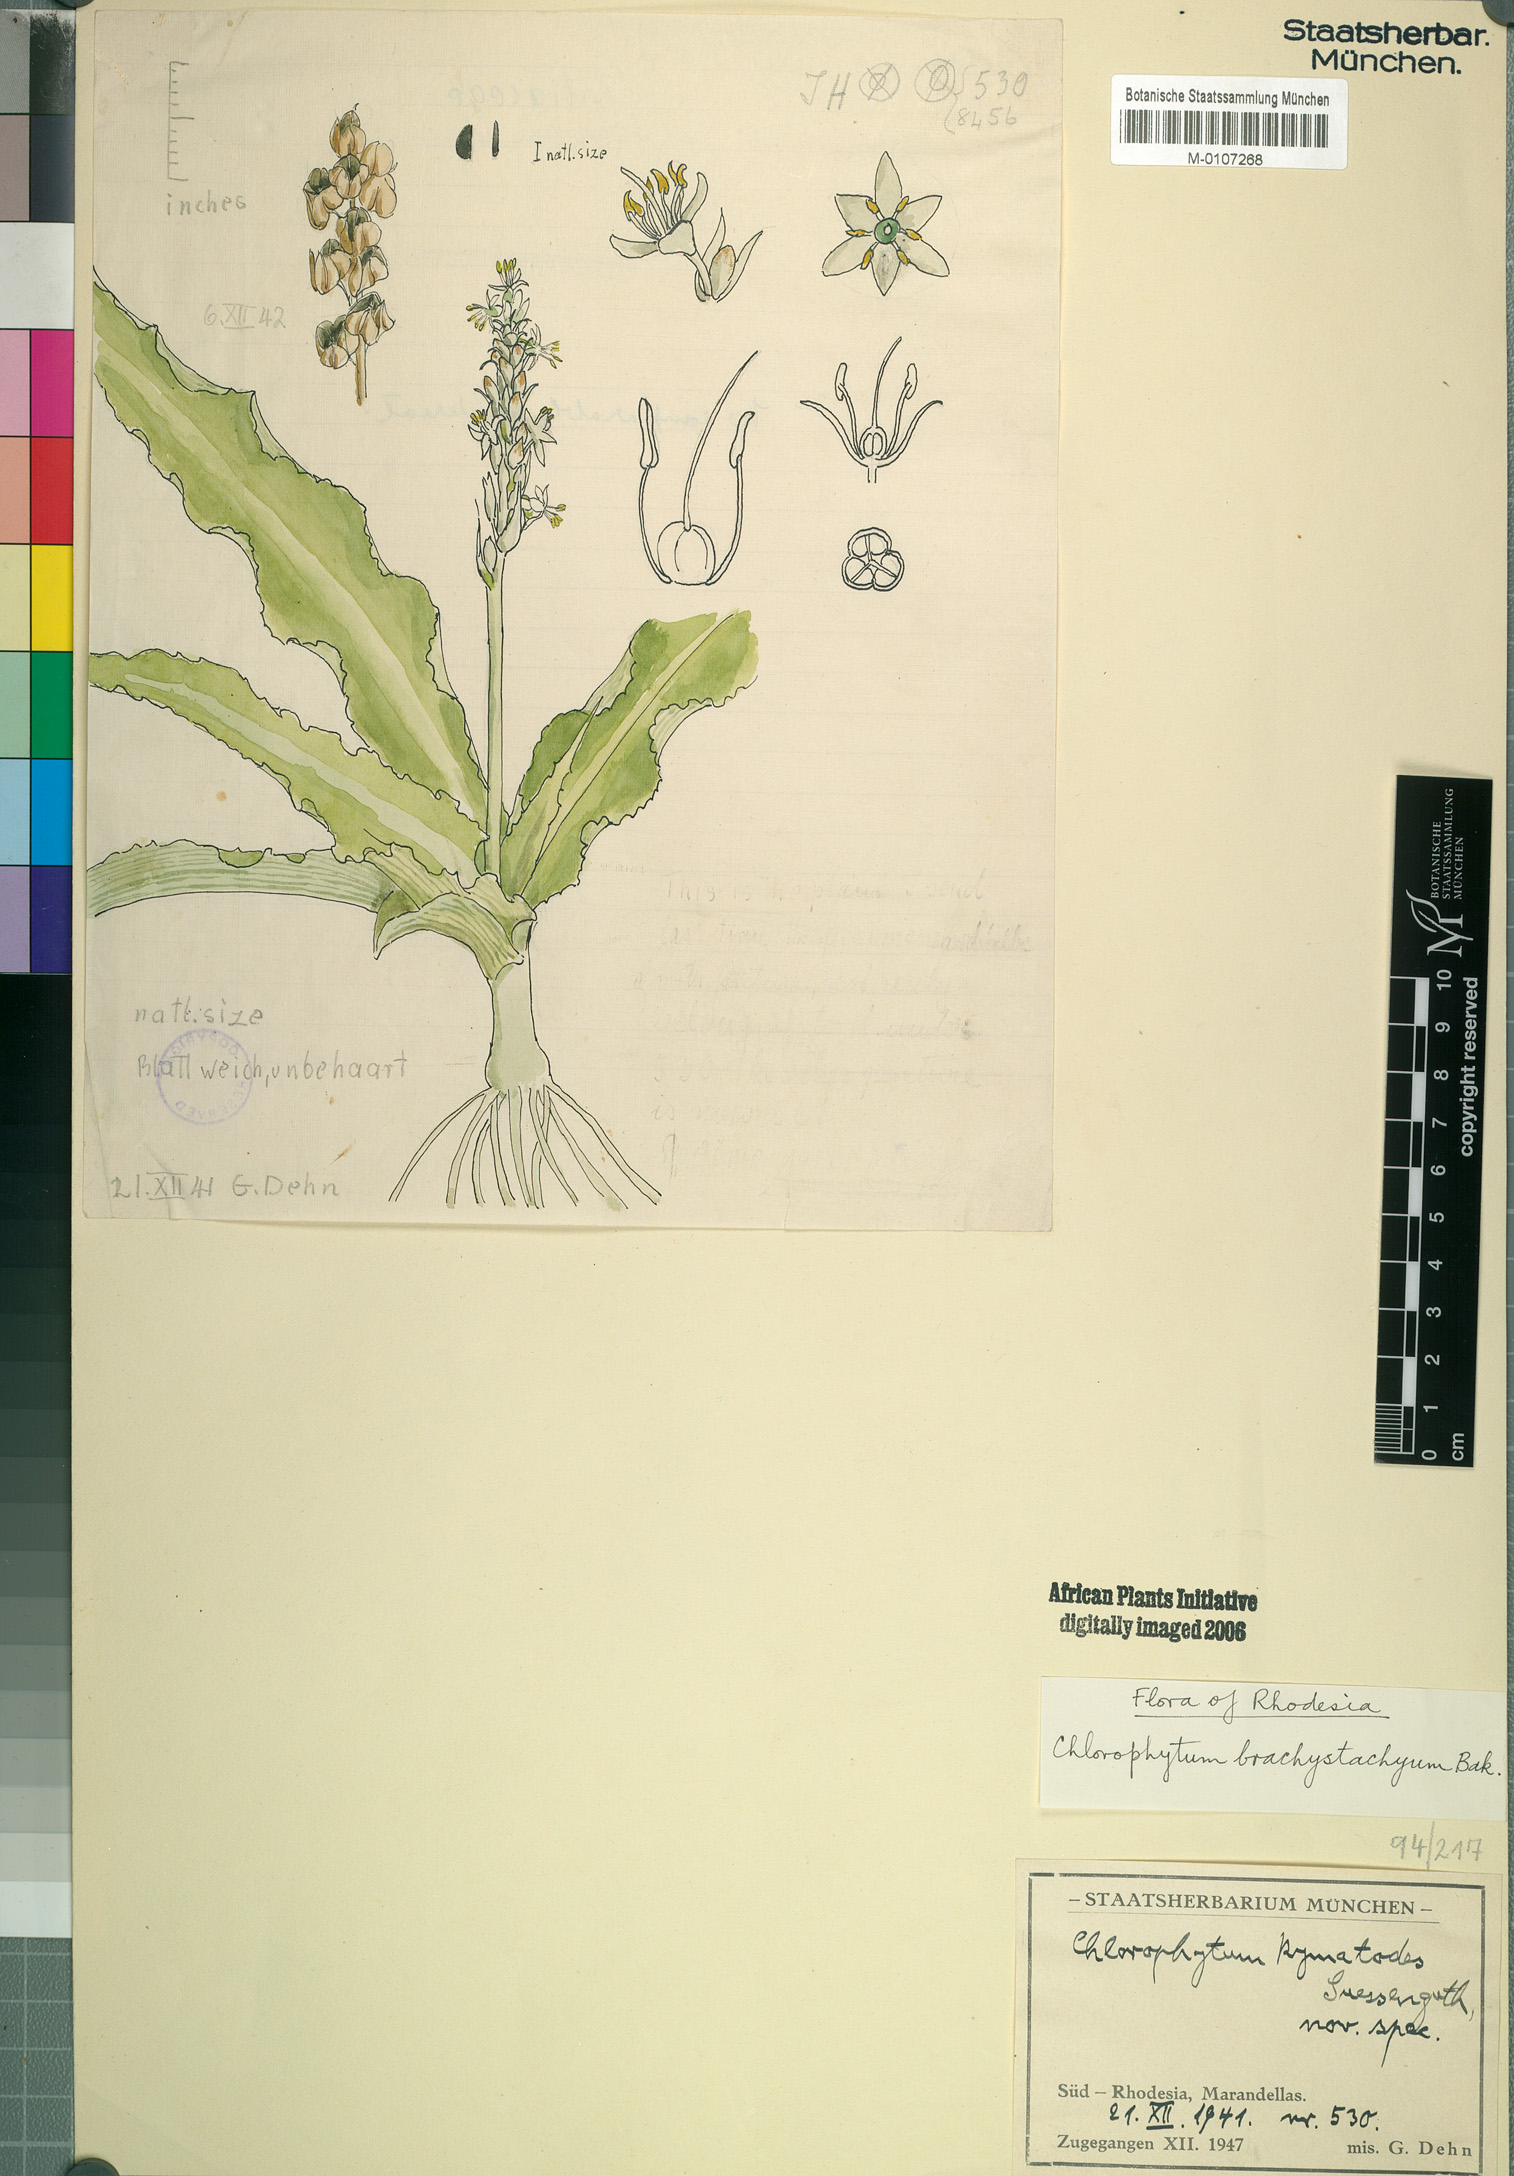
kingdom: Plantae
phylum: Tracheophyta
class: Liliopsida
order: Asparagales
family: Asparagaceae
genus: Chlorophytum
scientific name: Chlorophytum brachystachyum
